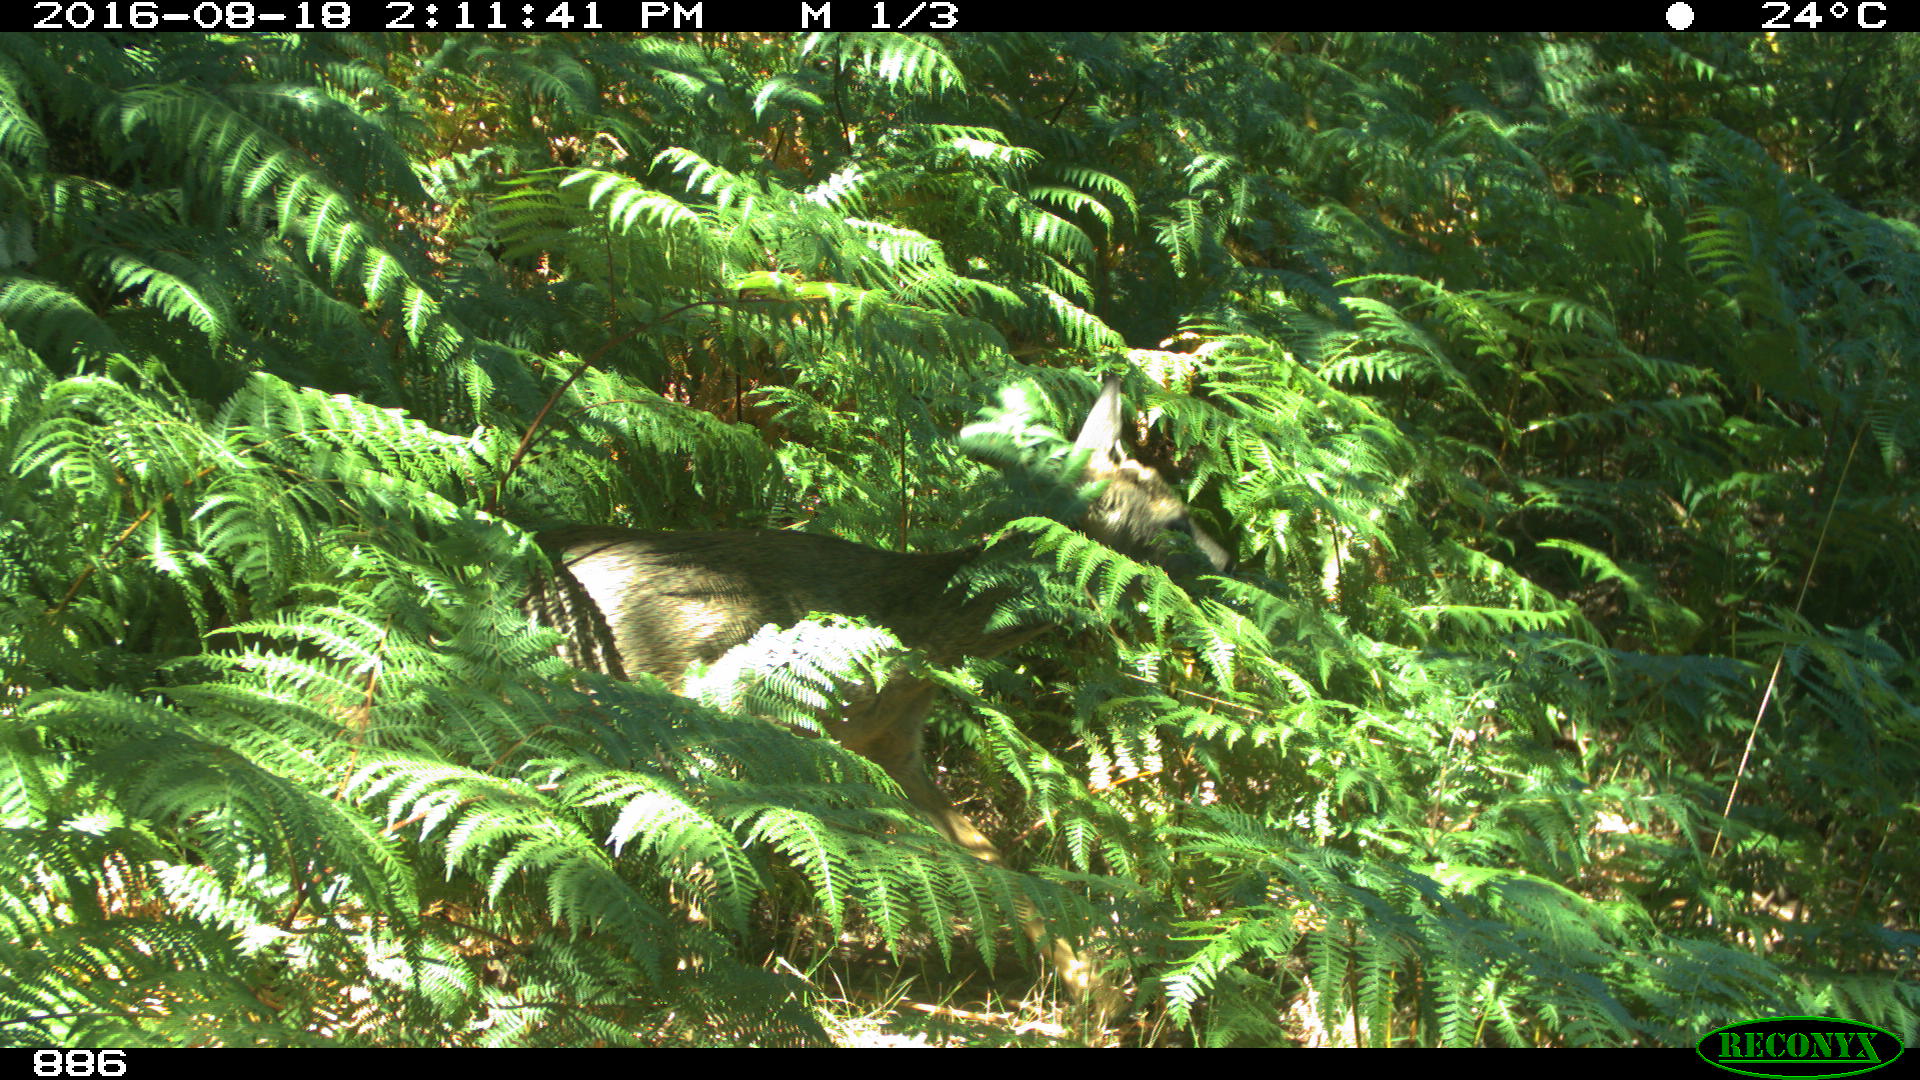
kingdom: Animalia
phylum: Chordata
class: Mammalia
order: Artiodactyla
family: Cervidae
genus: Capreolus
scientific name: Capreolus capreolus
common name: Western roe deer
